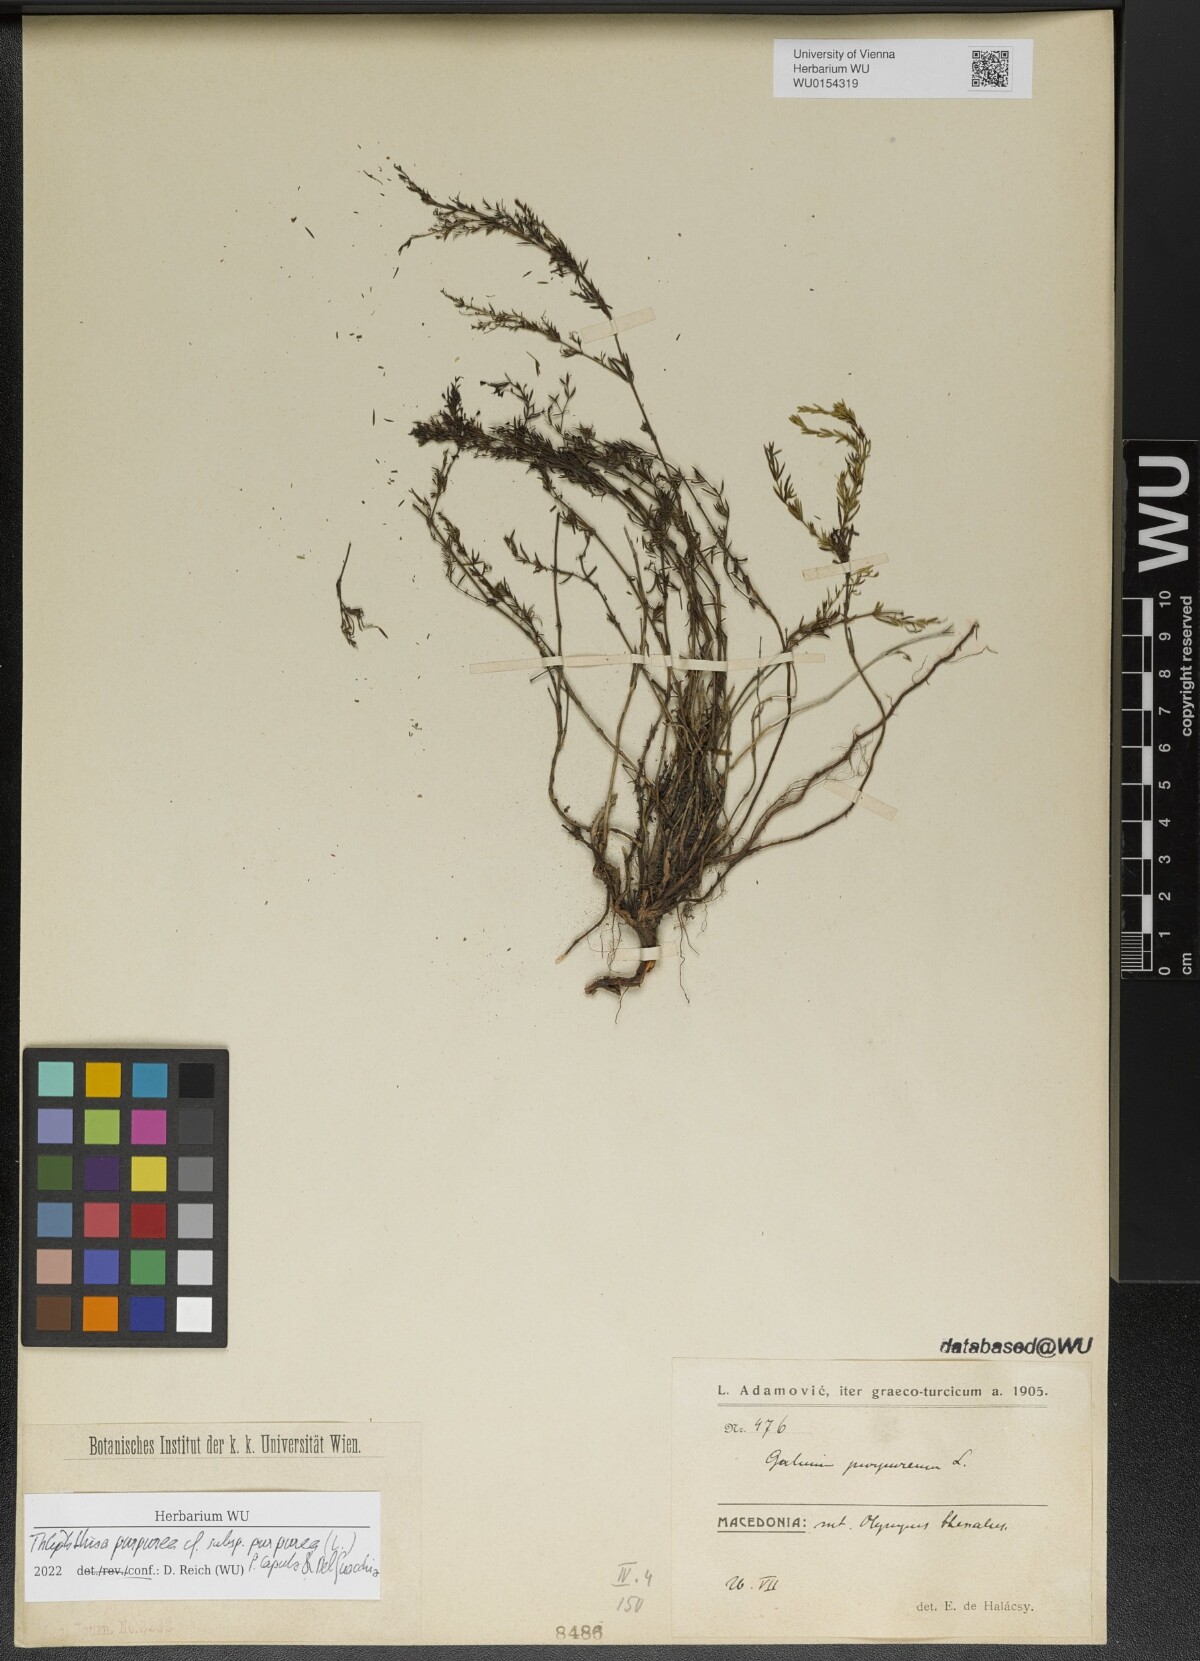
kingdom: Plantae
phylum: Tracheophyta
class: Magnoliopsida
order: Gentianales
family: Rubiaceae
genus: Thliphthisa
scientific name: Thliphthisa purpurea
